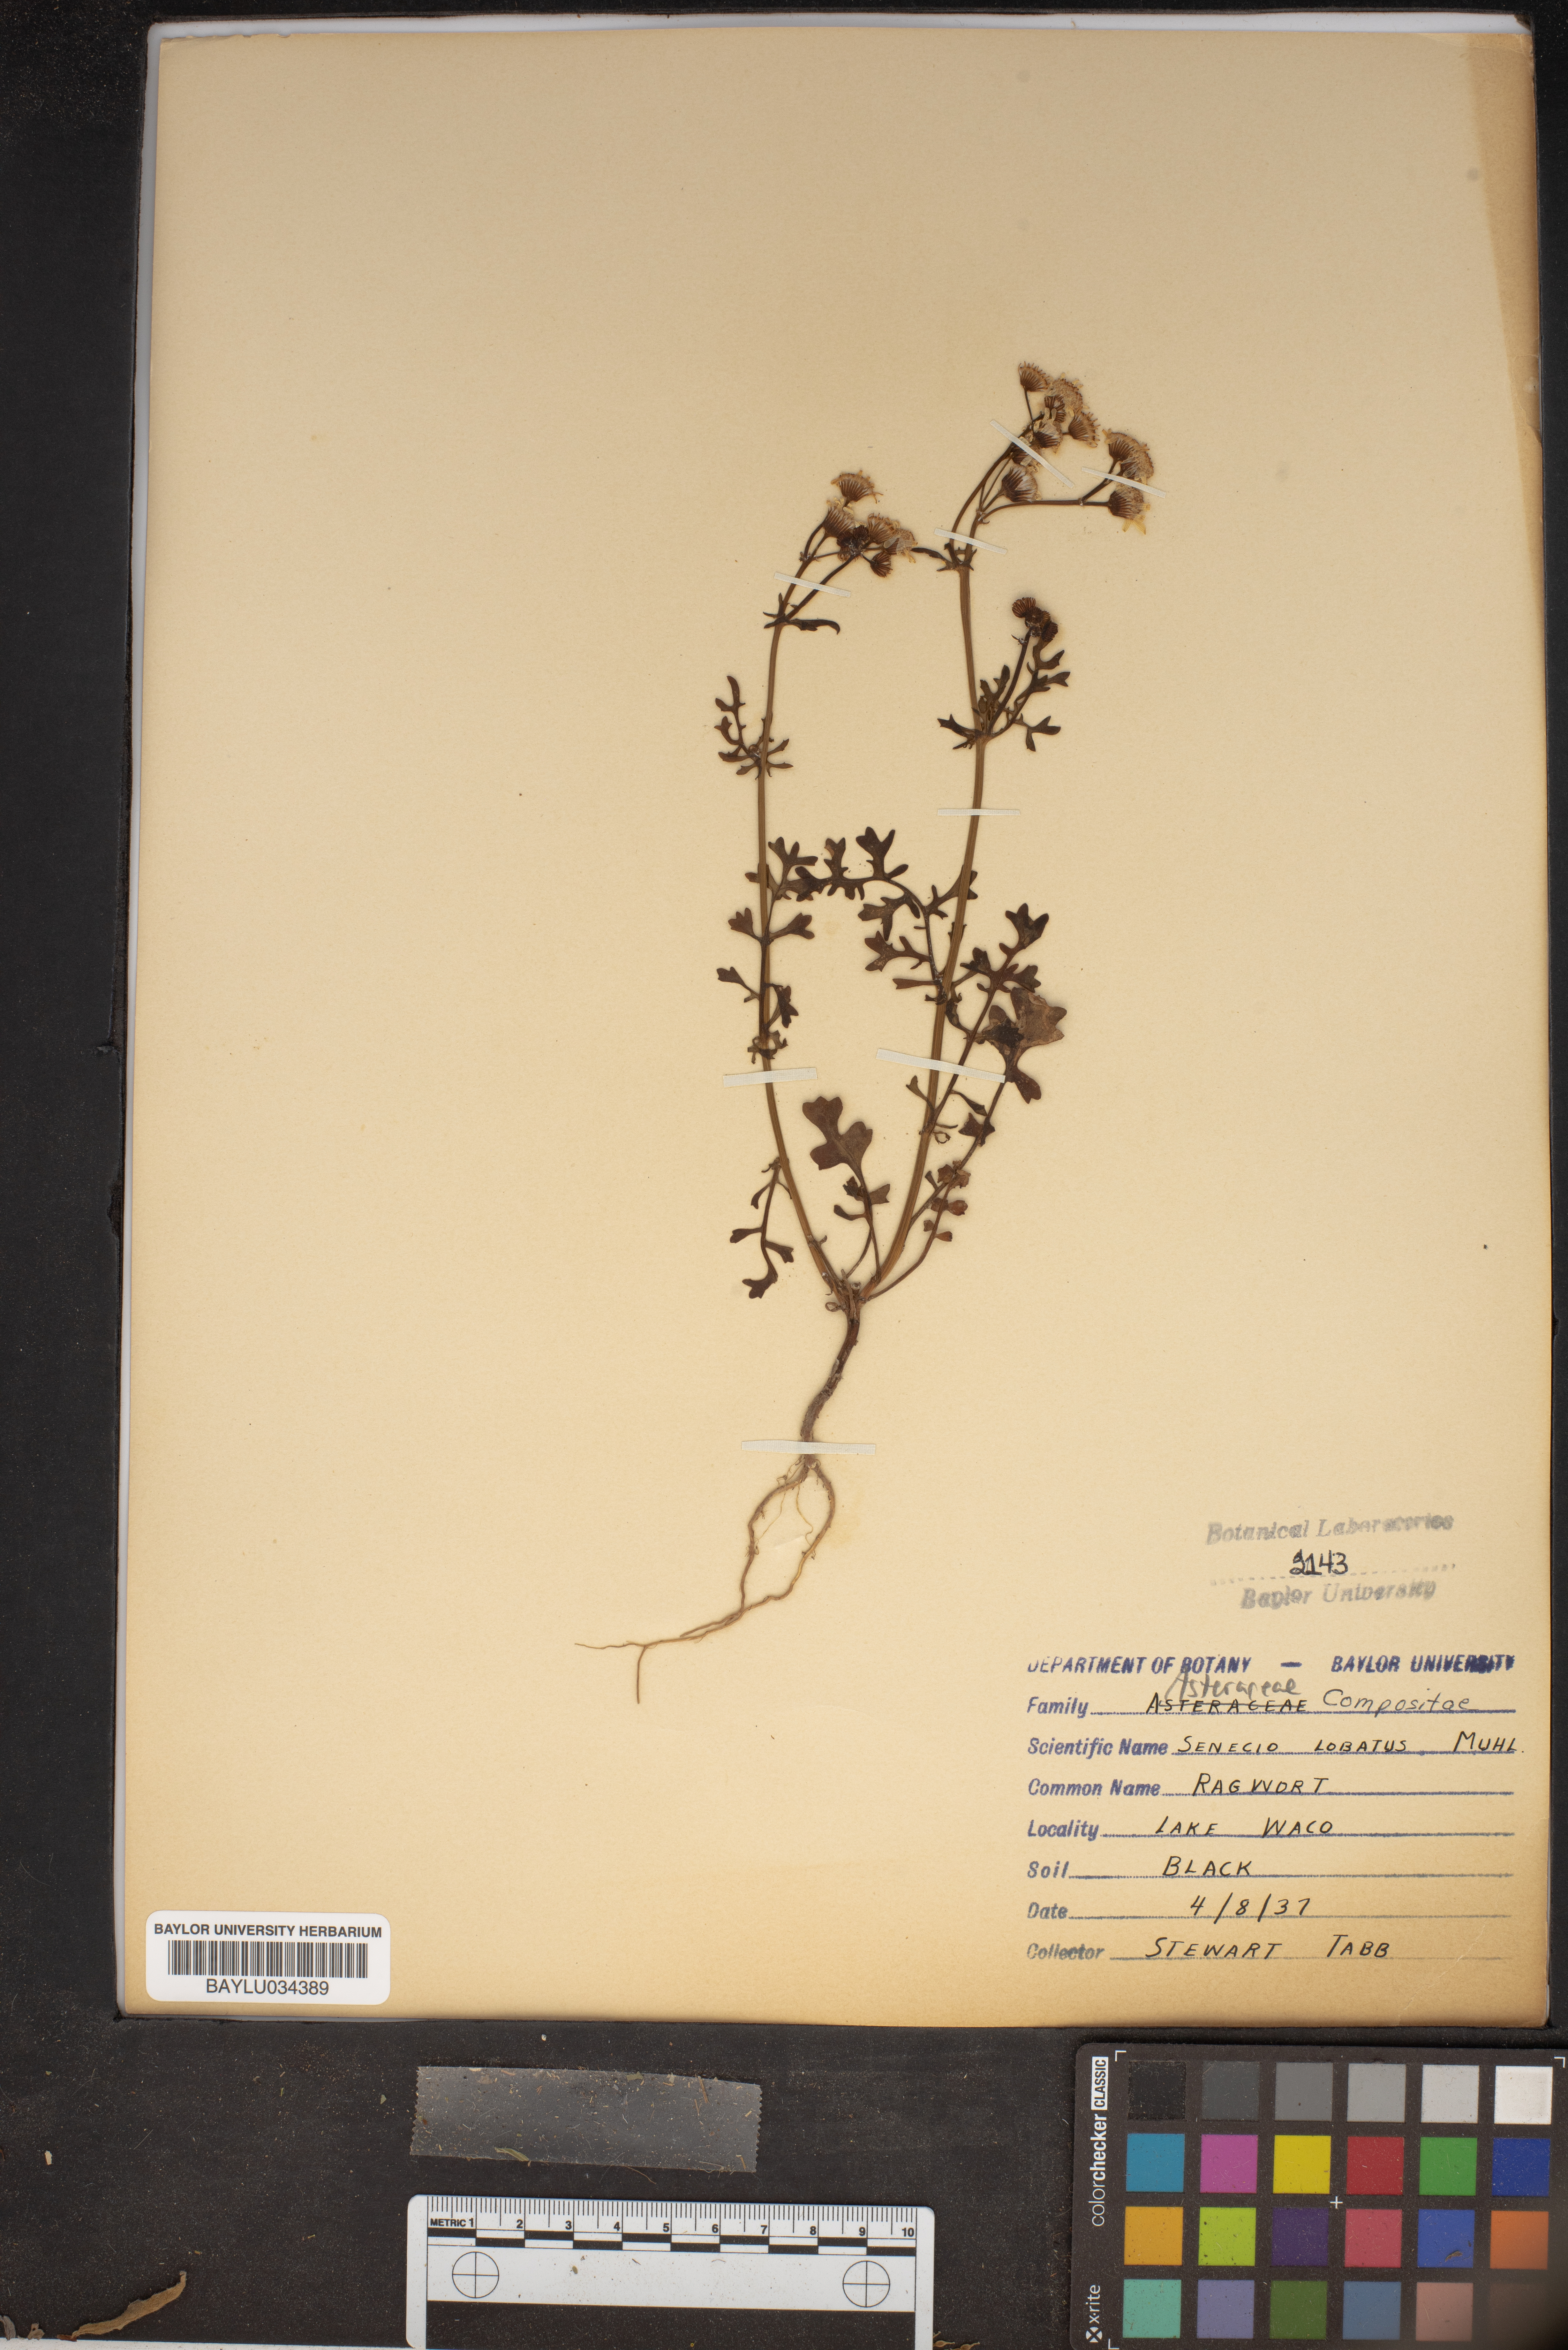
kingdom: Plantae
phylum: Tracheophyta
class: Magnoliopsida
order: Asterales
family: Asteraceae
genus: Packera
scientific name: Packera glabella
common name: Butterweed
